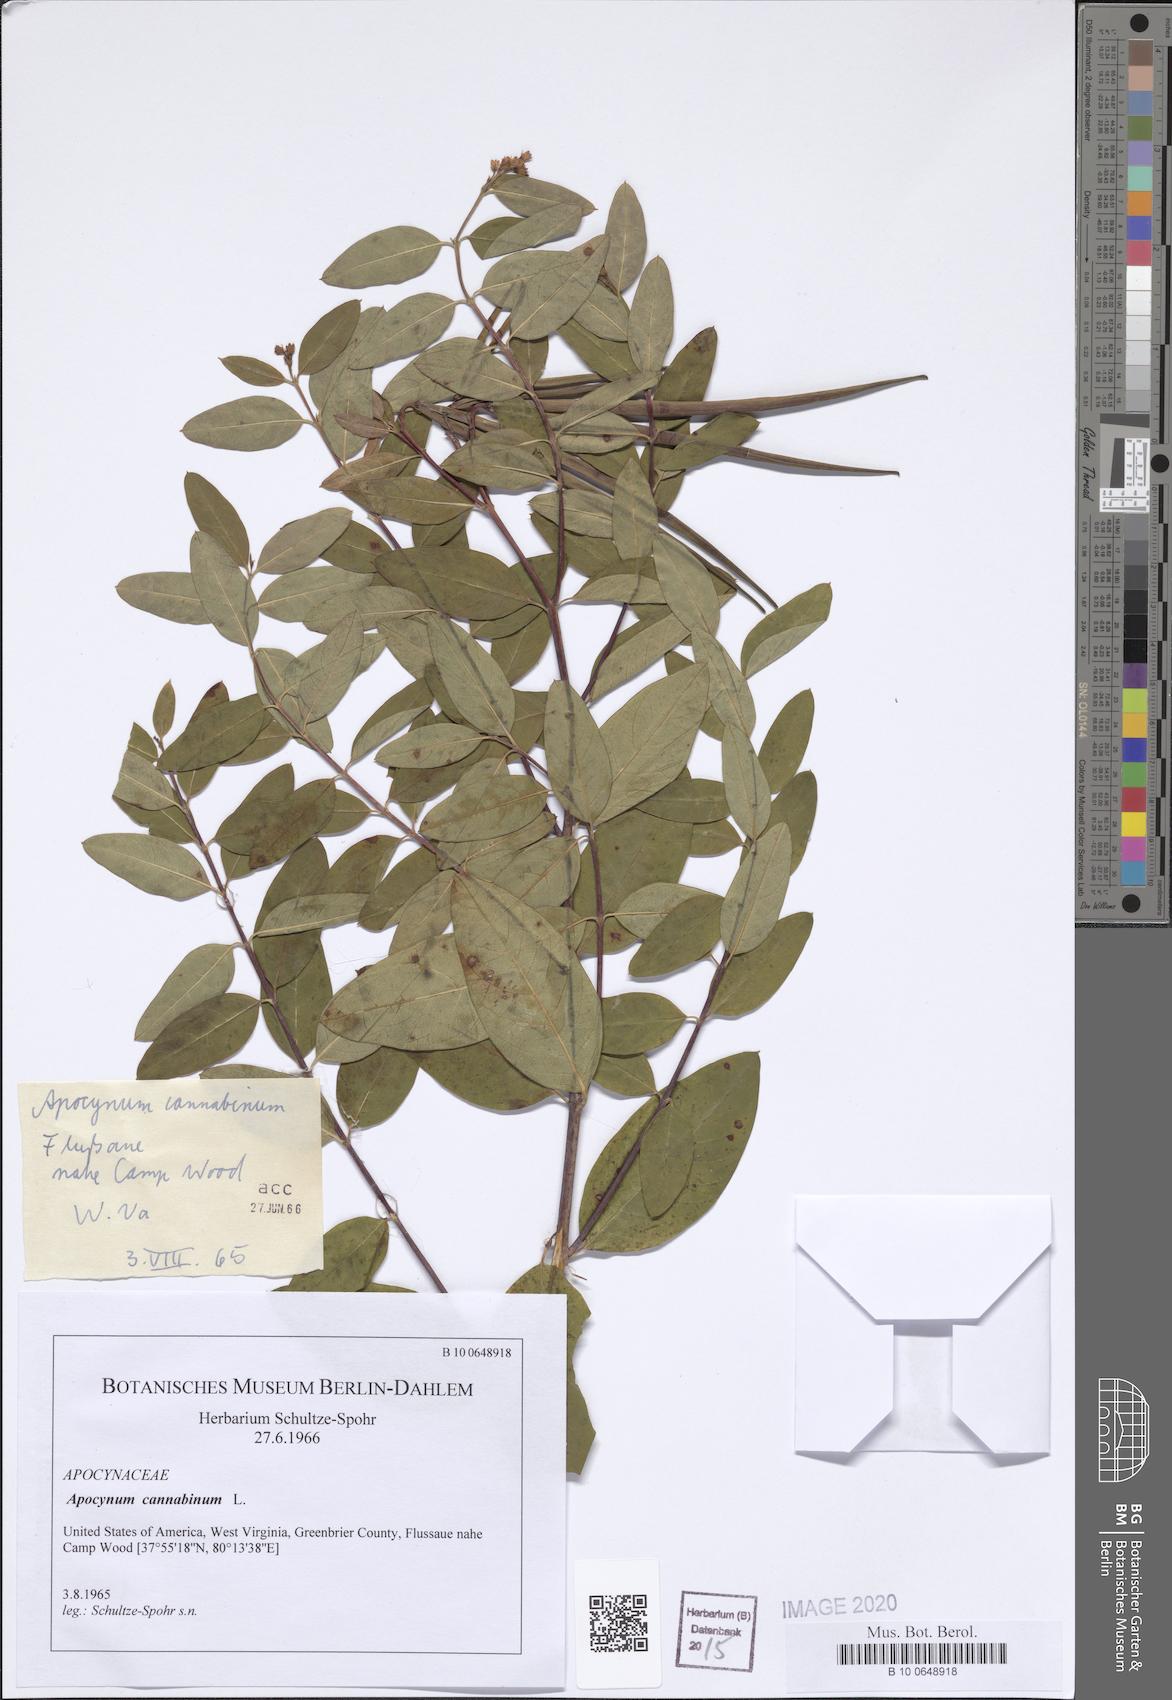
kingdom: Plantae
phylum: Tracheophyta
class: Magnoliopsida
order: Gentianales
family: Apocynaceae
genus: Apocynum
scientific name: Apocynum cannabinum
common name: Hemp dogbane
